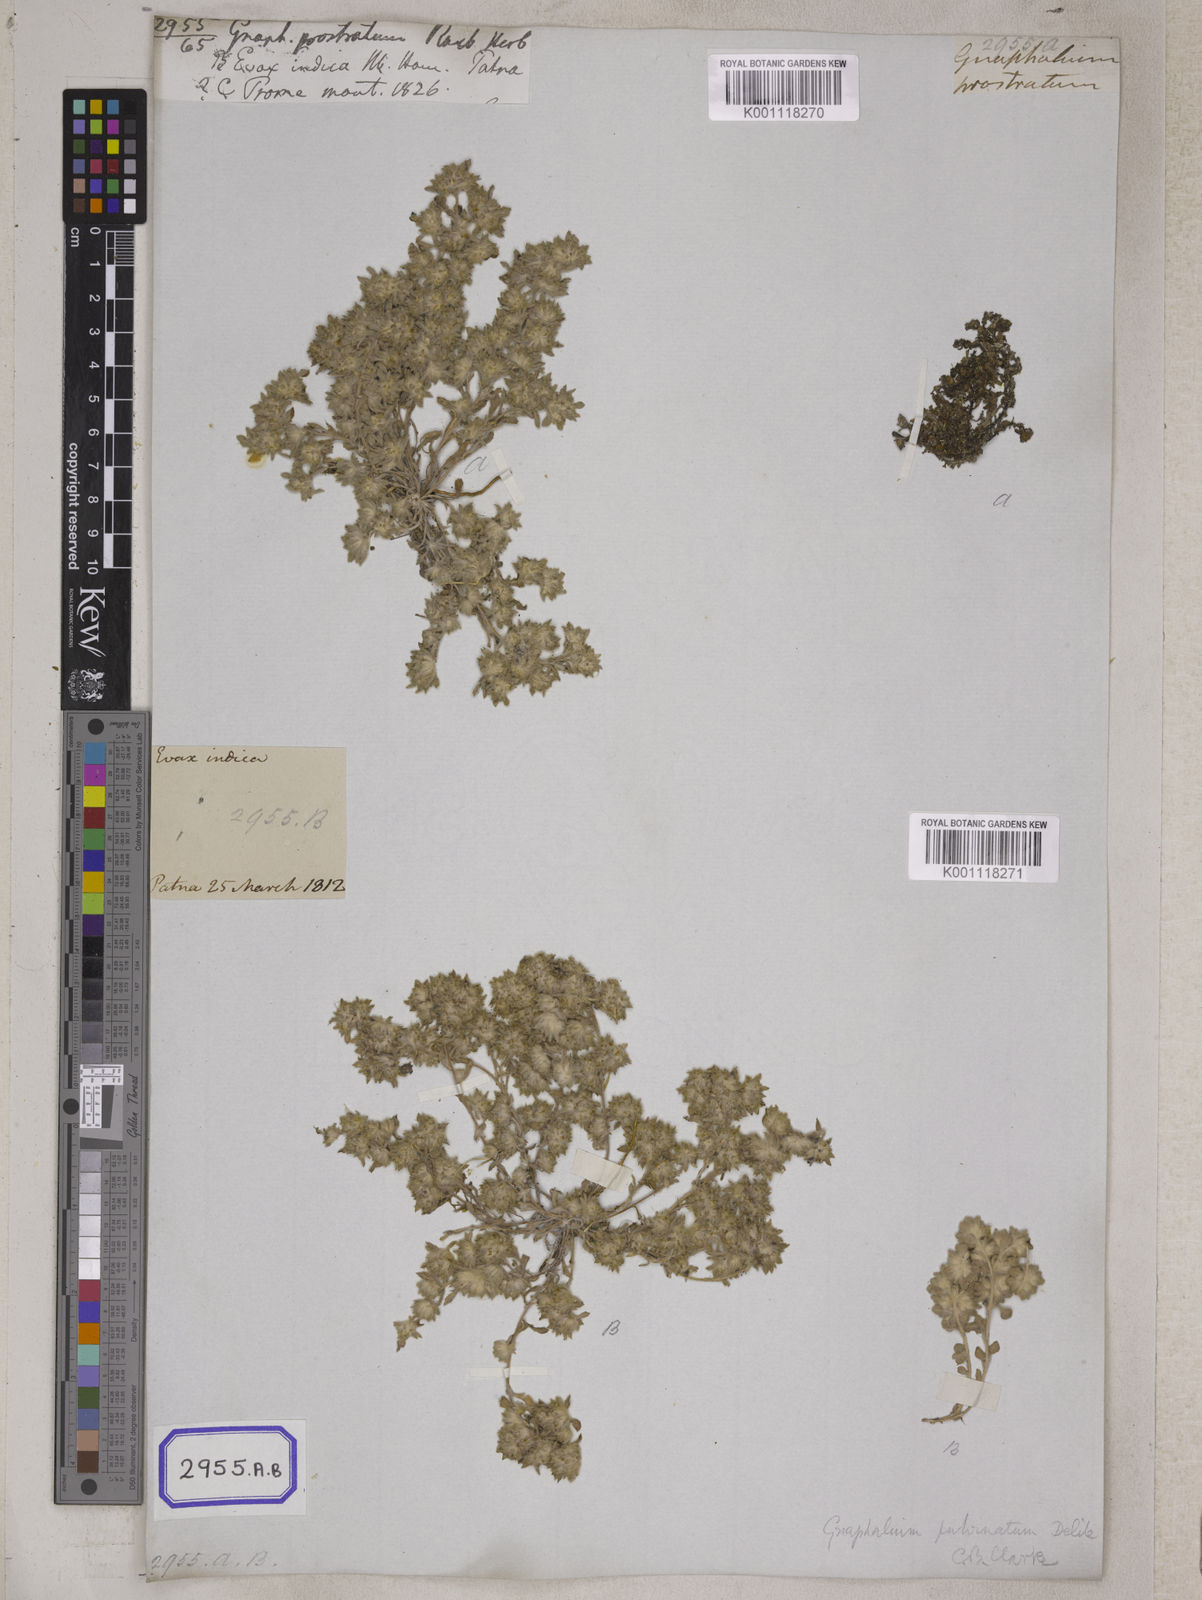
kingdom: Plantae
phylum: Tracheophyta
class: Magnoliopsida
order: Asterales
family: Asteraceae
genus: Gnomophalium
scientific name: Gnomophalium pulvinatum
